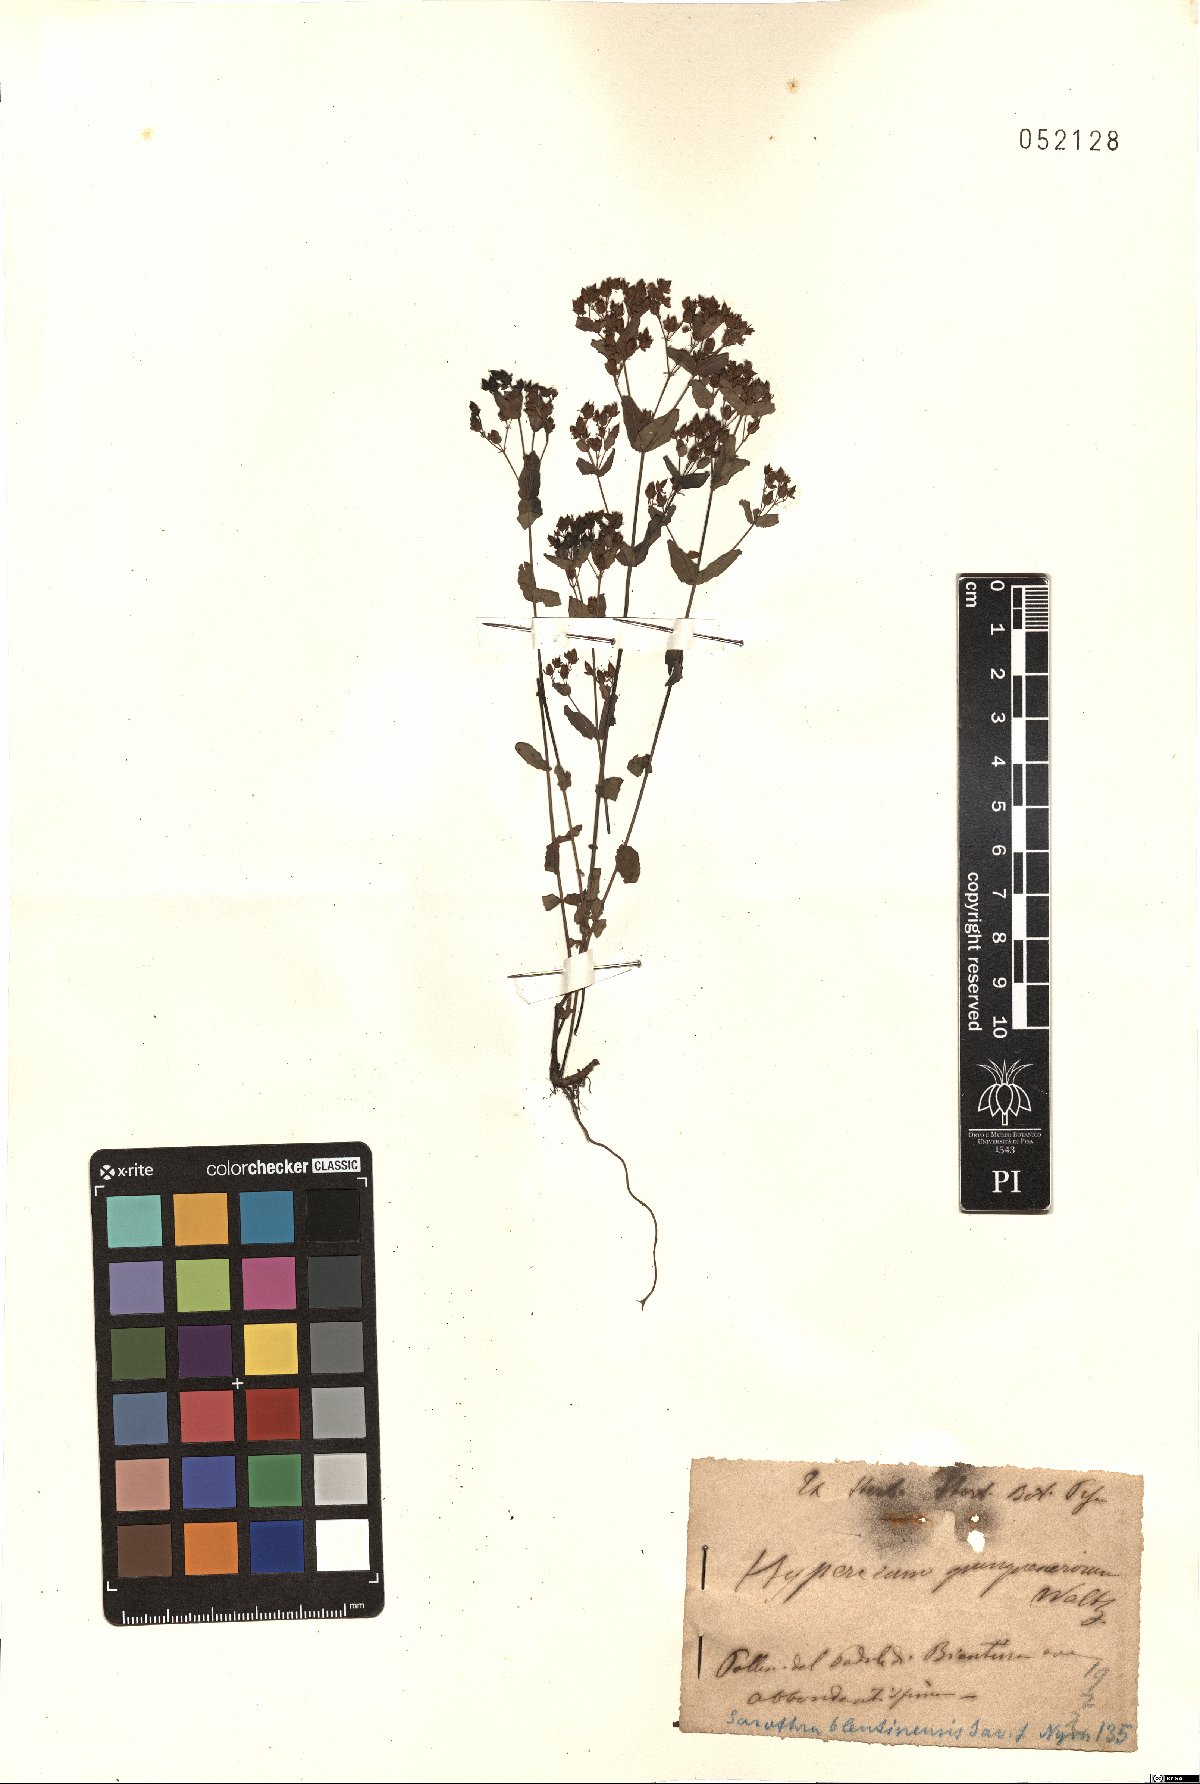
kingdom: Plantae
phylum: Tracheophyta
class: Magnoliopsida
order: Malpighiales
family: Hypericaceae
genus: Hypericum
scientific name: Hypericum mutilum
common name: Dwarf st. john's-wort
